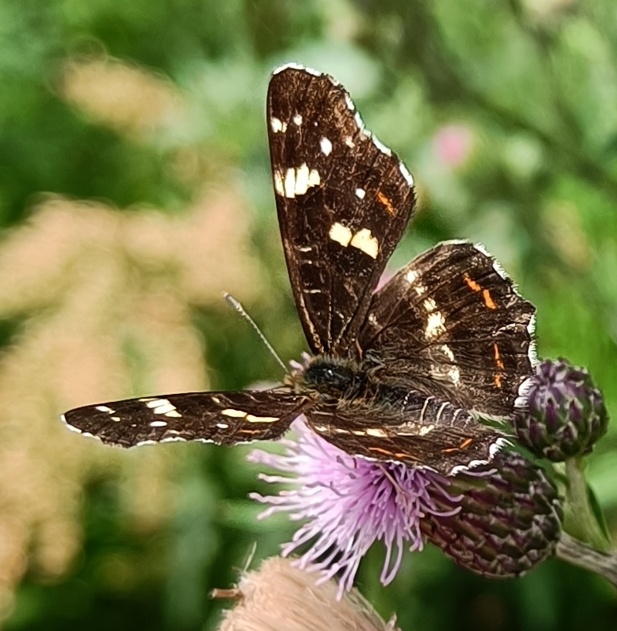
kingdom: Animalia
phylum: Arthropoda
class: Insecta
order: Lepidoptera
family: Nymphalidae
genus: Araschnia
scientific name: Araschnia levana
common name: Nældesommerfugl
